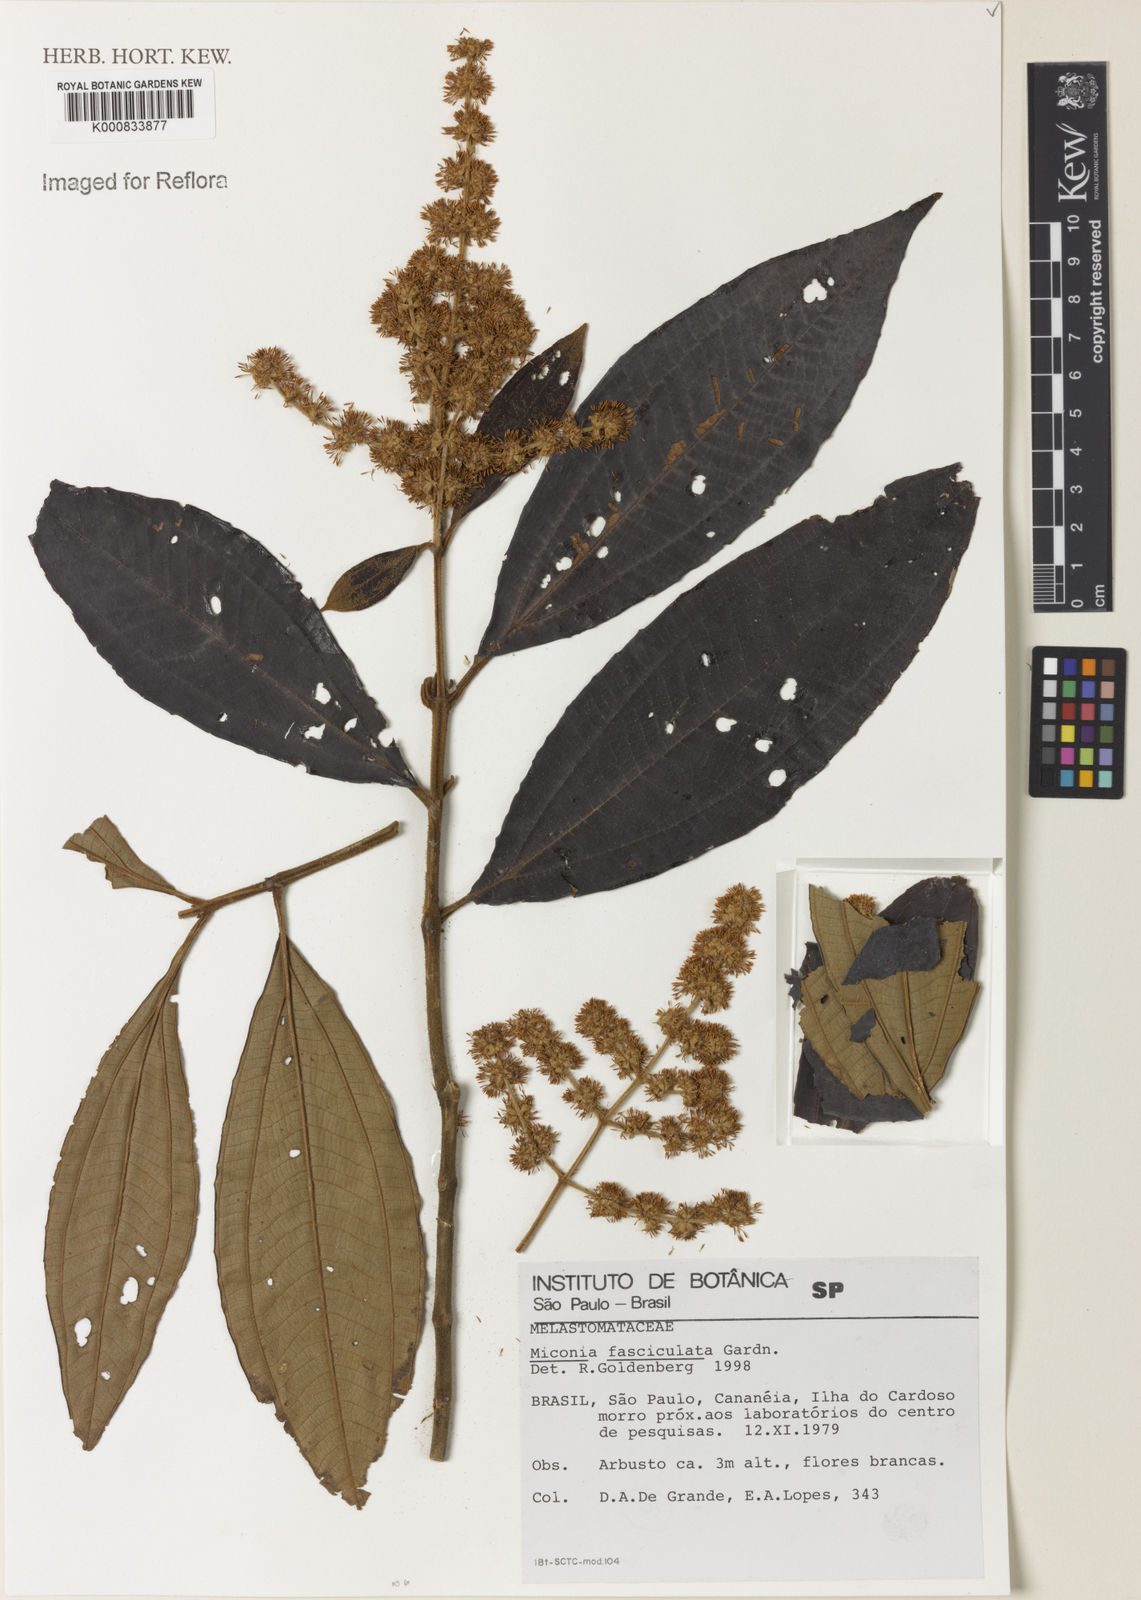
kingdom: Plantae
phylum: Tracheophyta
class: Magnoliopsida
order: Myrtales
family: Melastomataceae
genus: Miconia
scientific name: Miconia fasciculata
